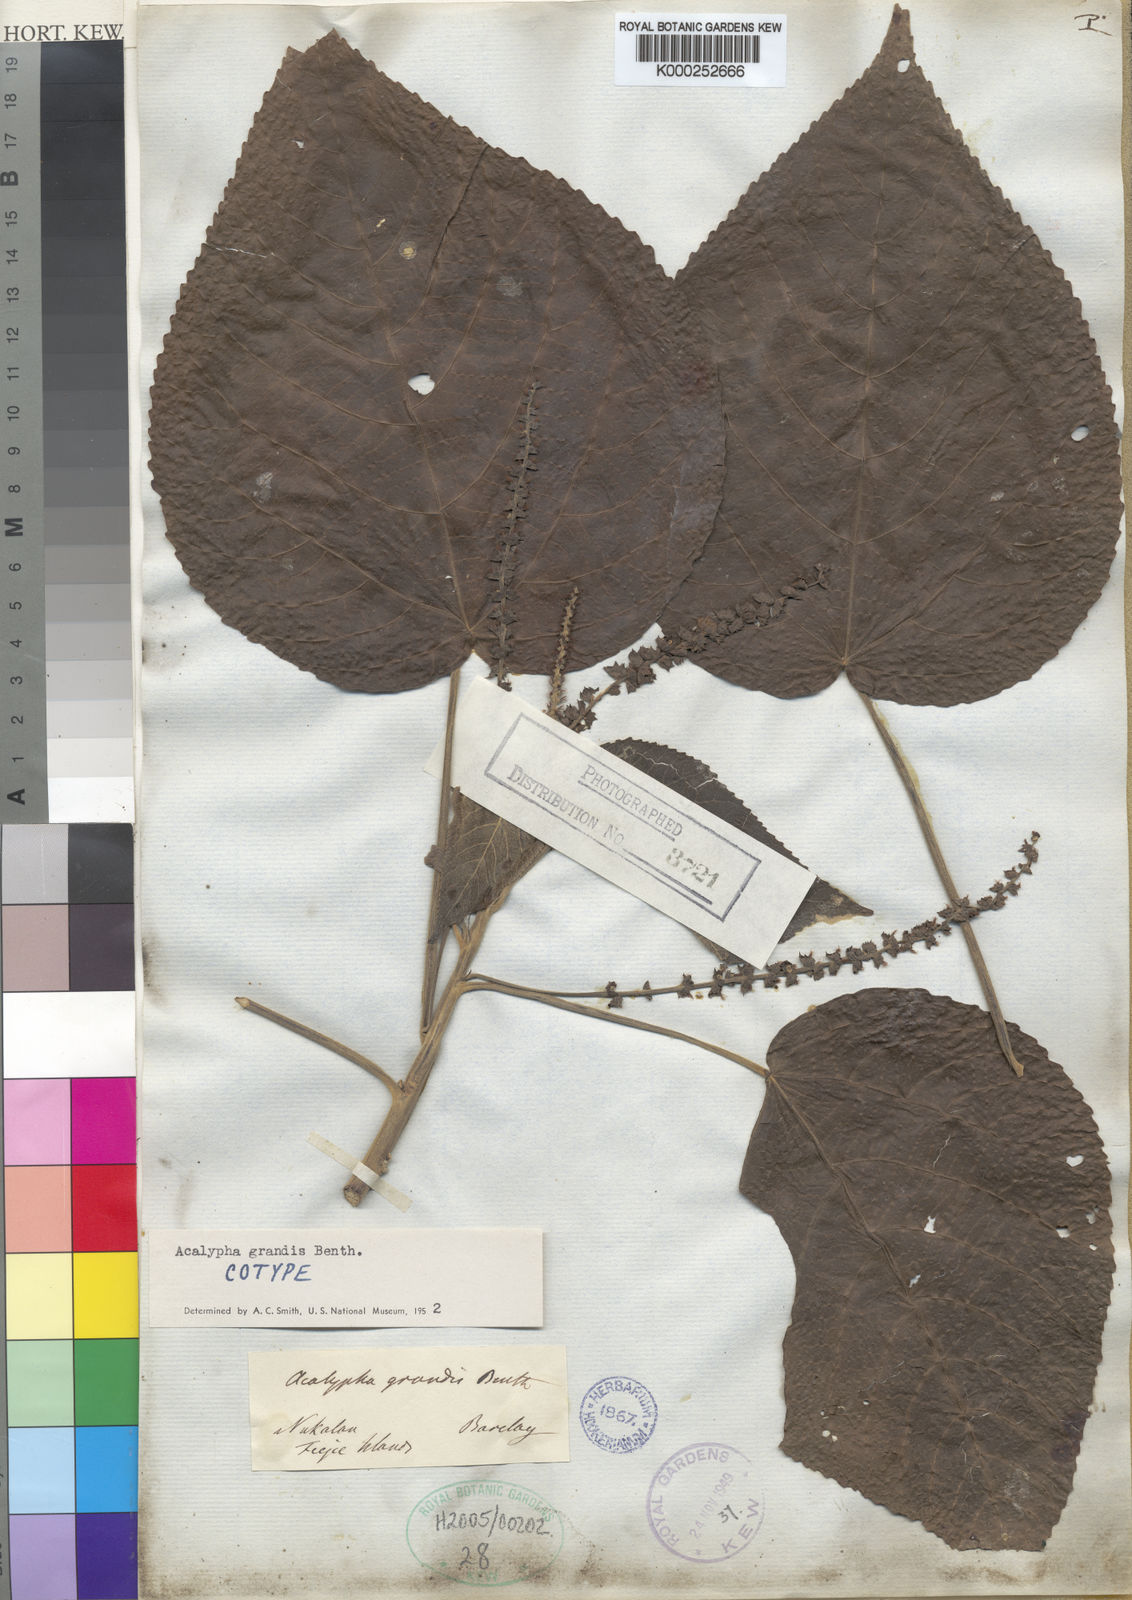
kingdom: Plantae
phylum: Tracheophyta
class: Magnoliopsida
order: Malpighiales
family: Euphorbiaceae
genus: Acalypha
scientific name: Acalypha grandis
